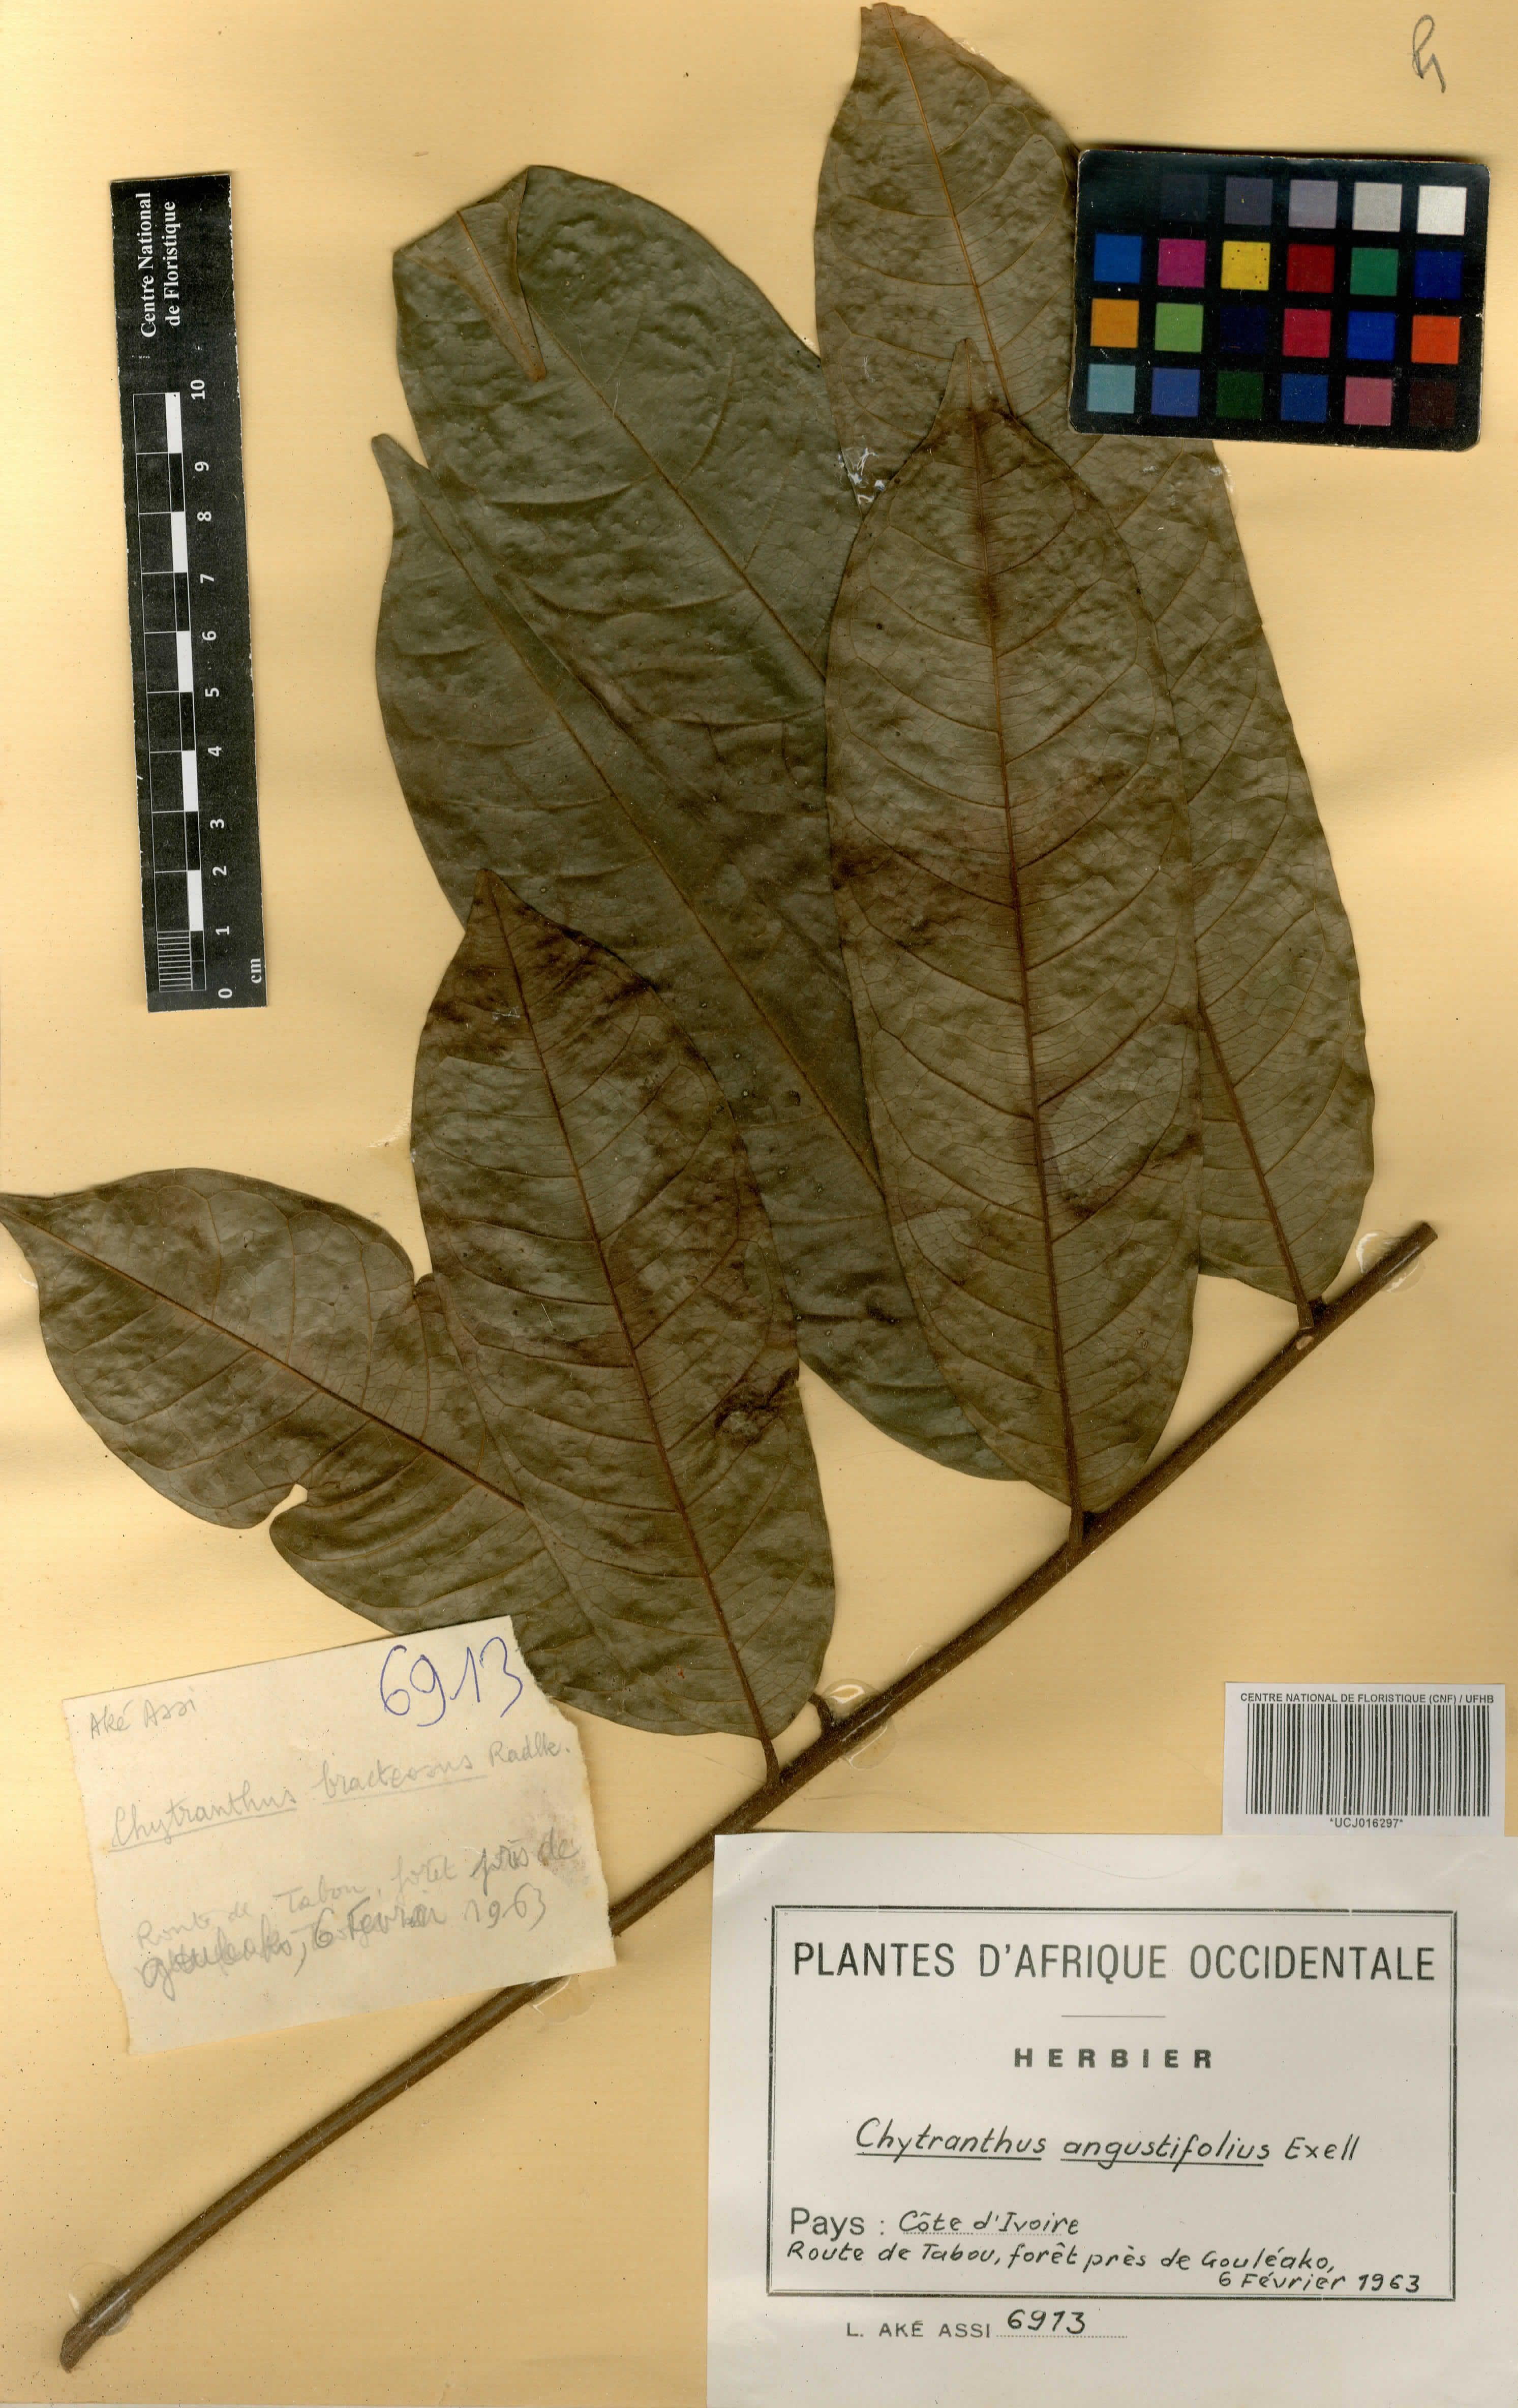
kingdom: Plantae
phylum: Tracheophyta
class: Magnoliopsida
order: Sapindales
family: Sapindaceae
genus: Chytranthus
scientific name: Chytranthus angustifolius
